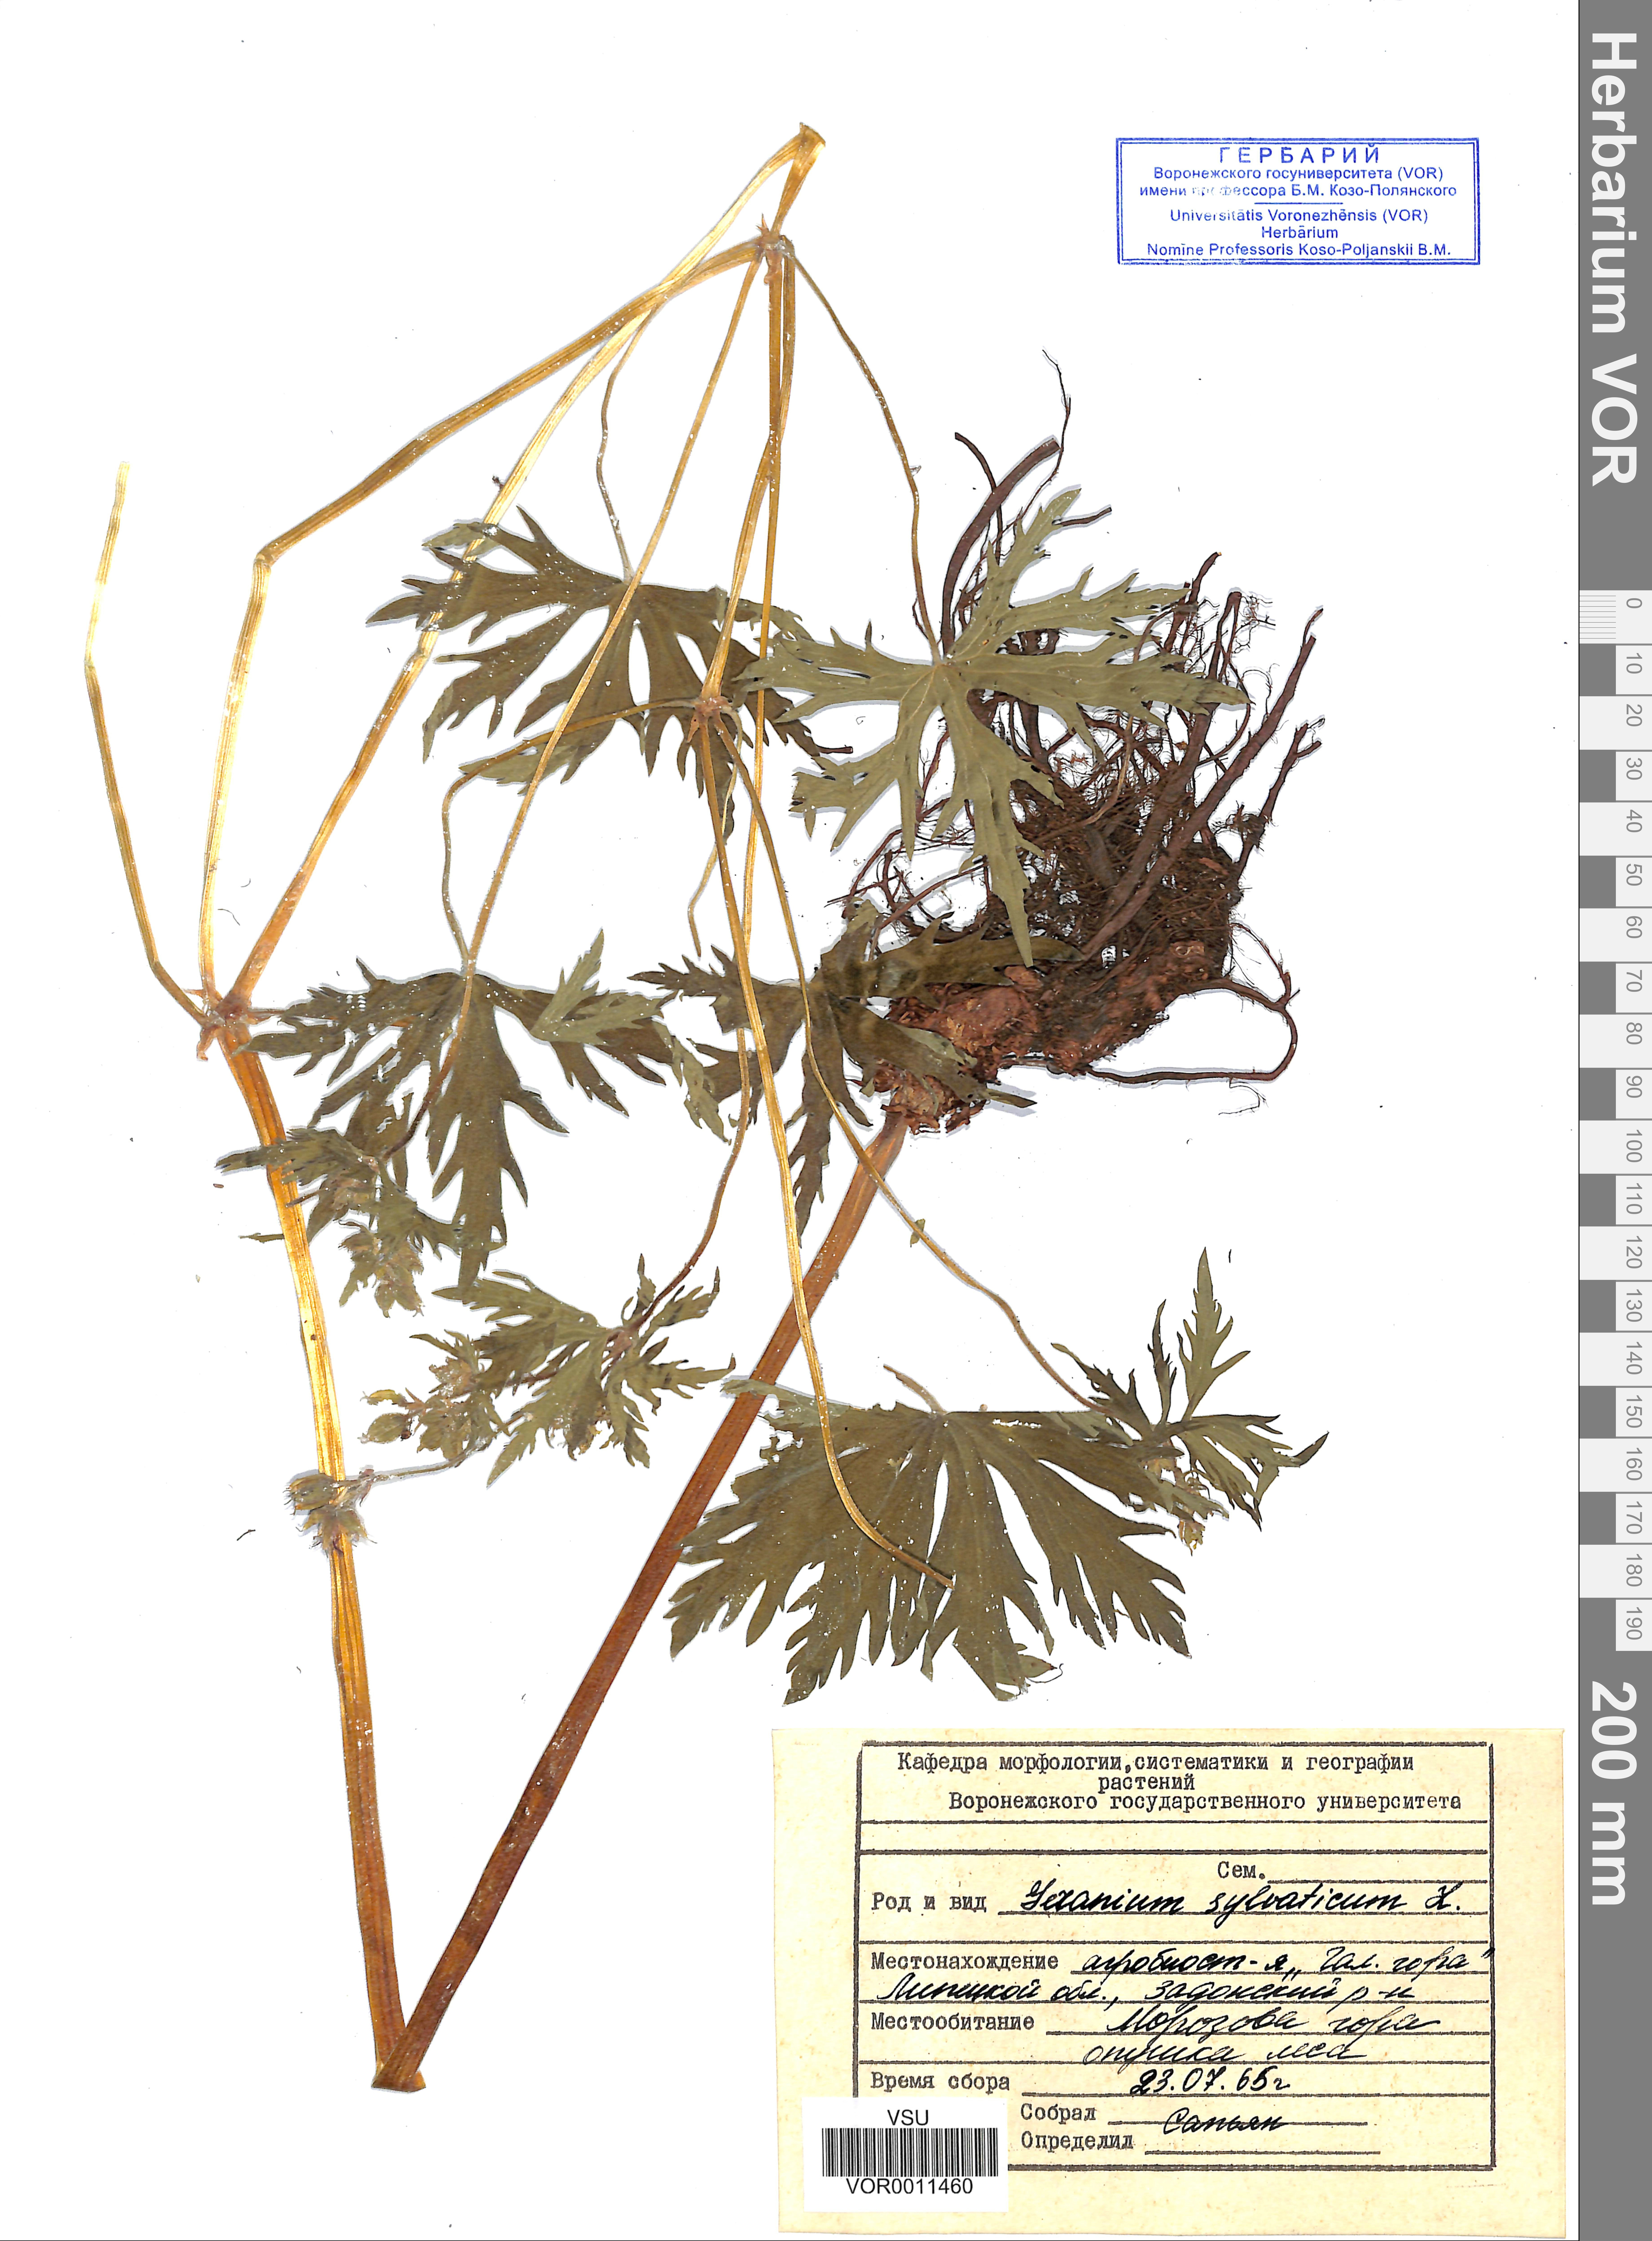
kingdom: Plantae
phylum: Tracheophyta
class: Magnoliopsida
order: Geraniales
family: Geraniaceae
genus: Geranium
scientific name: Geranium sibiricum
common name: Siberian crane's-bill
